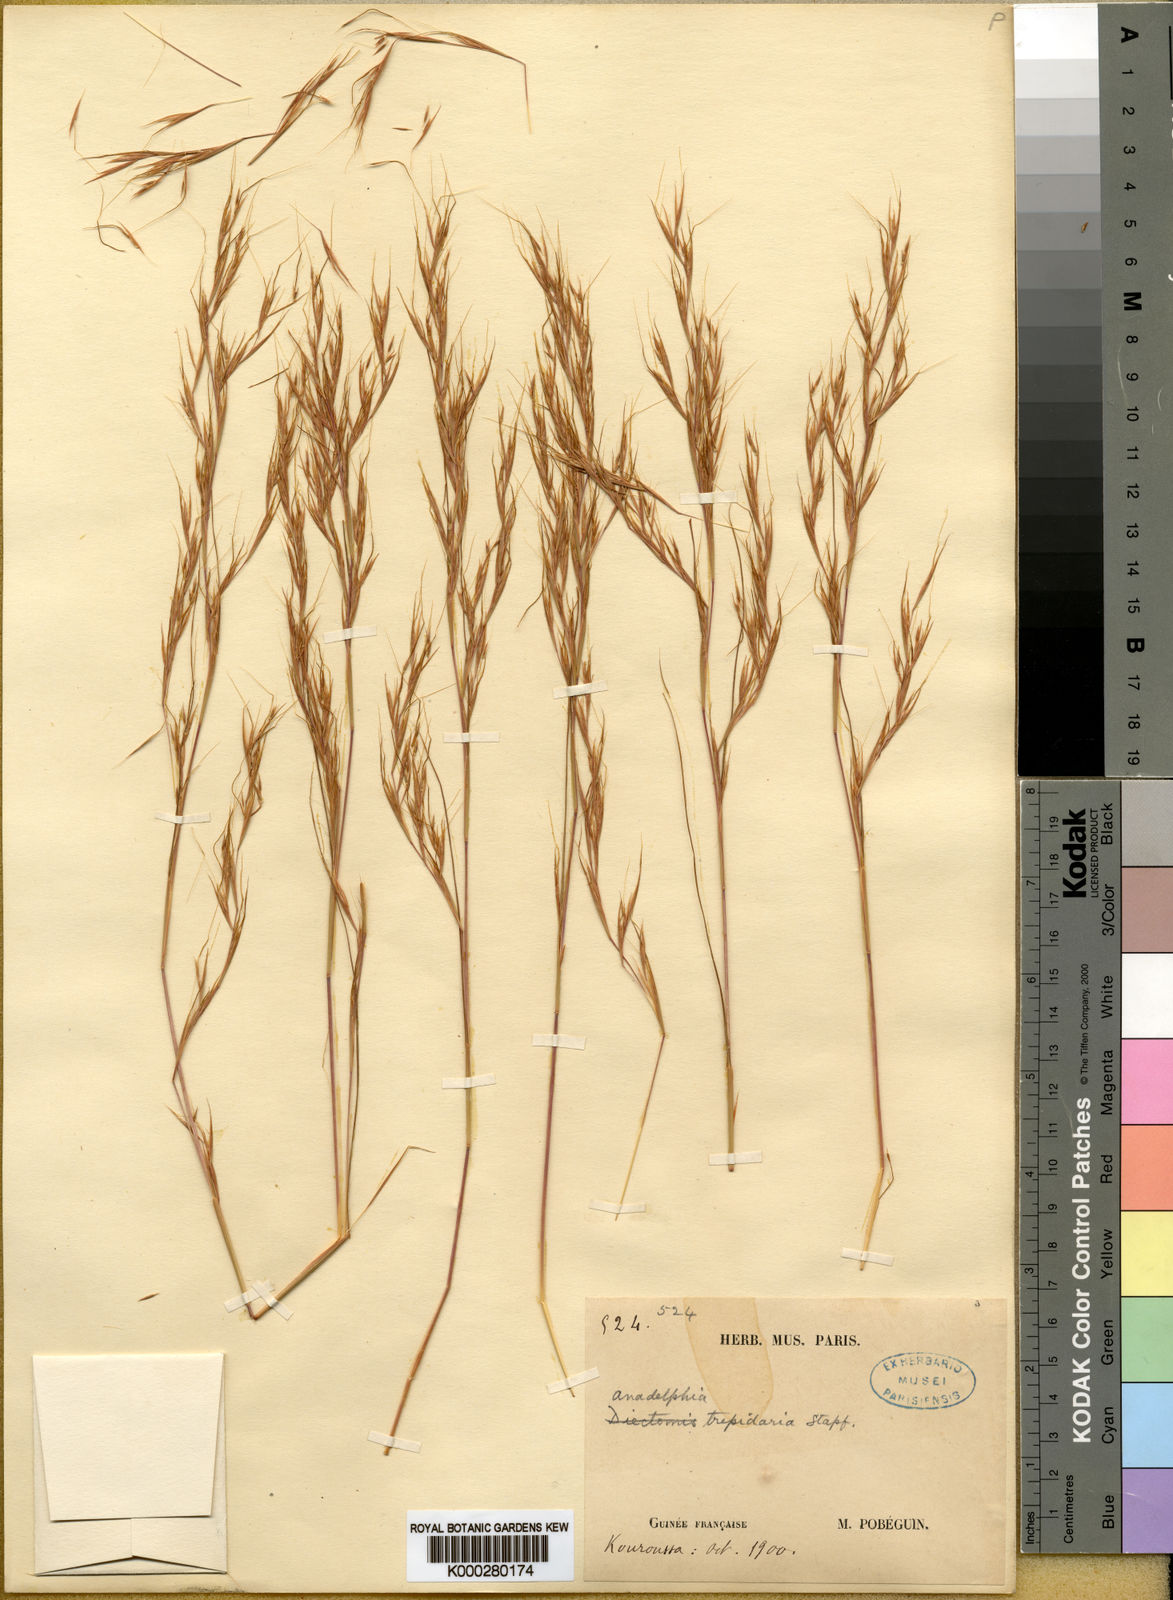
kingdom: Plantae
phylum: Tracheophyta
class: Liliopsida
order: Poales
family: Poaceae
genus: Anadelphia
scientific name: Anadelphia trepidaria
